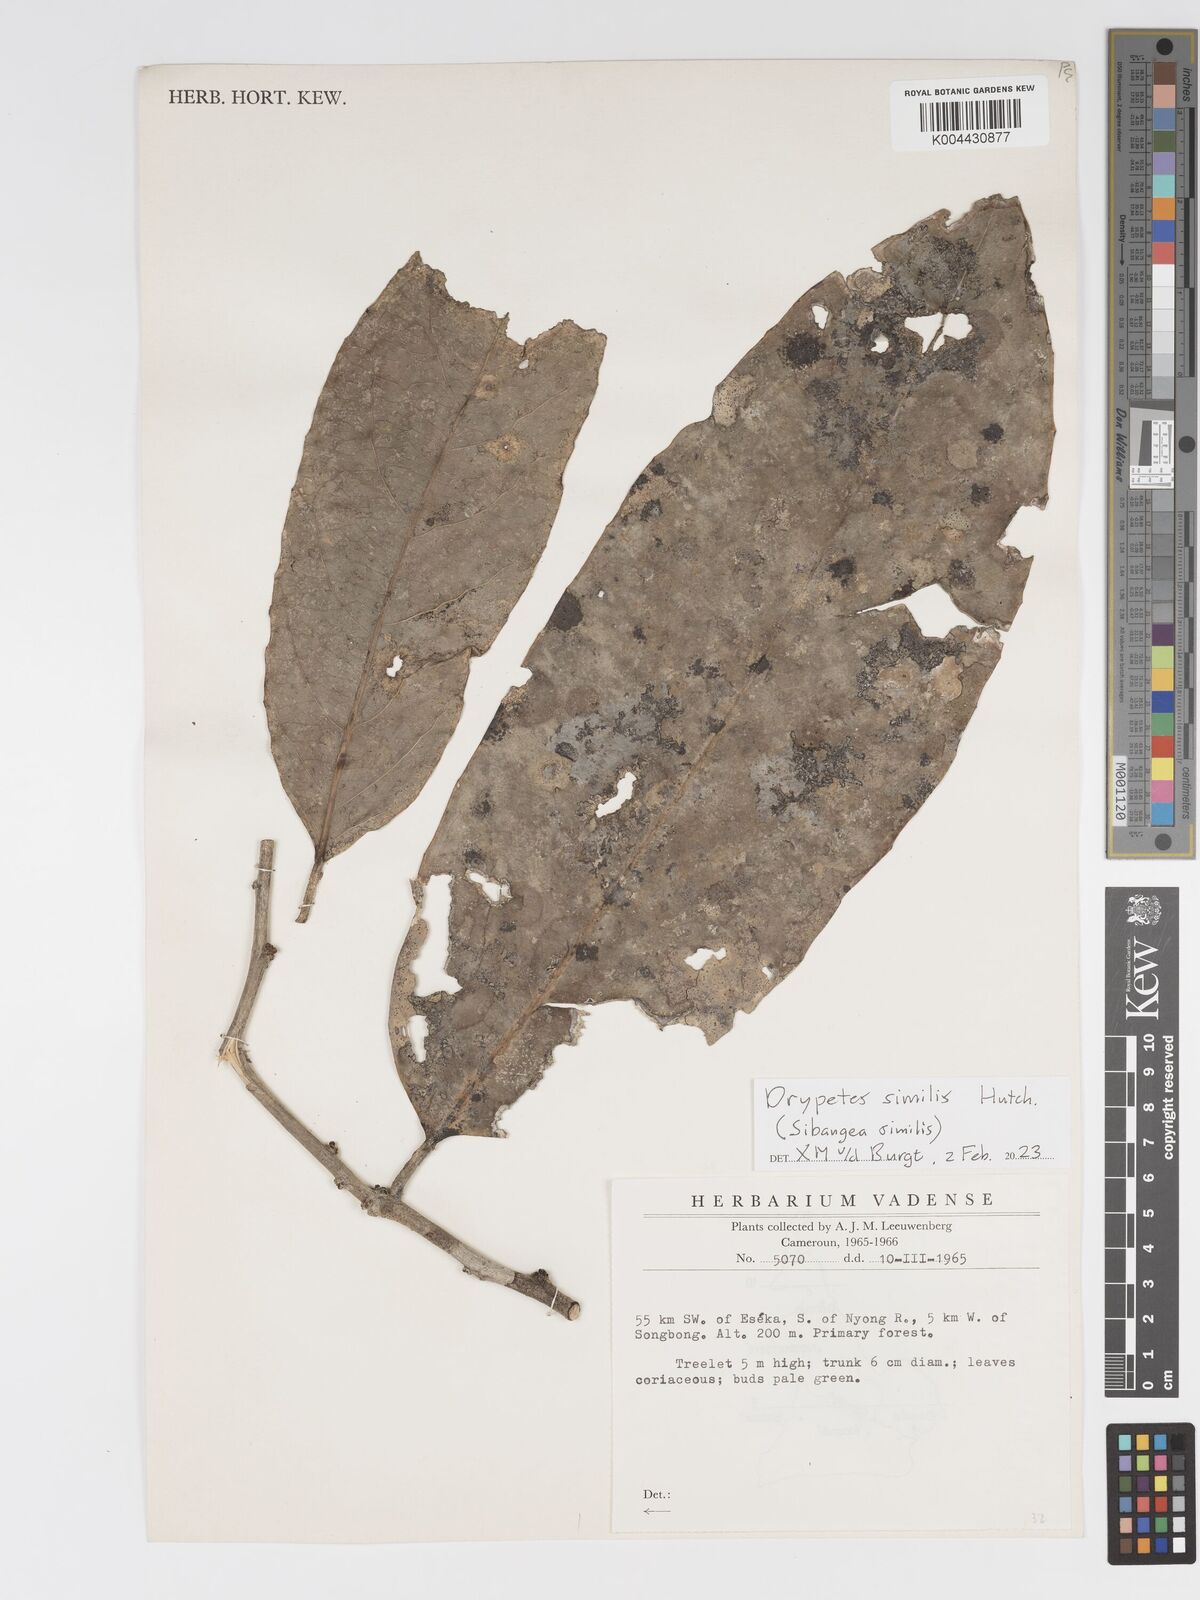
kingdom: Plantae
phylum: Tracheophyta
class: Magnoliopsida
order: Malpighiales
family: Putranjivaceae
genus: Drypetes
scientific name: Drypetes similis
